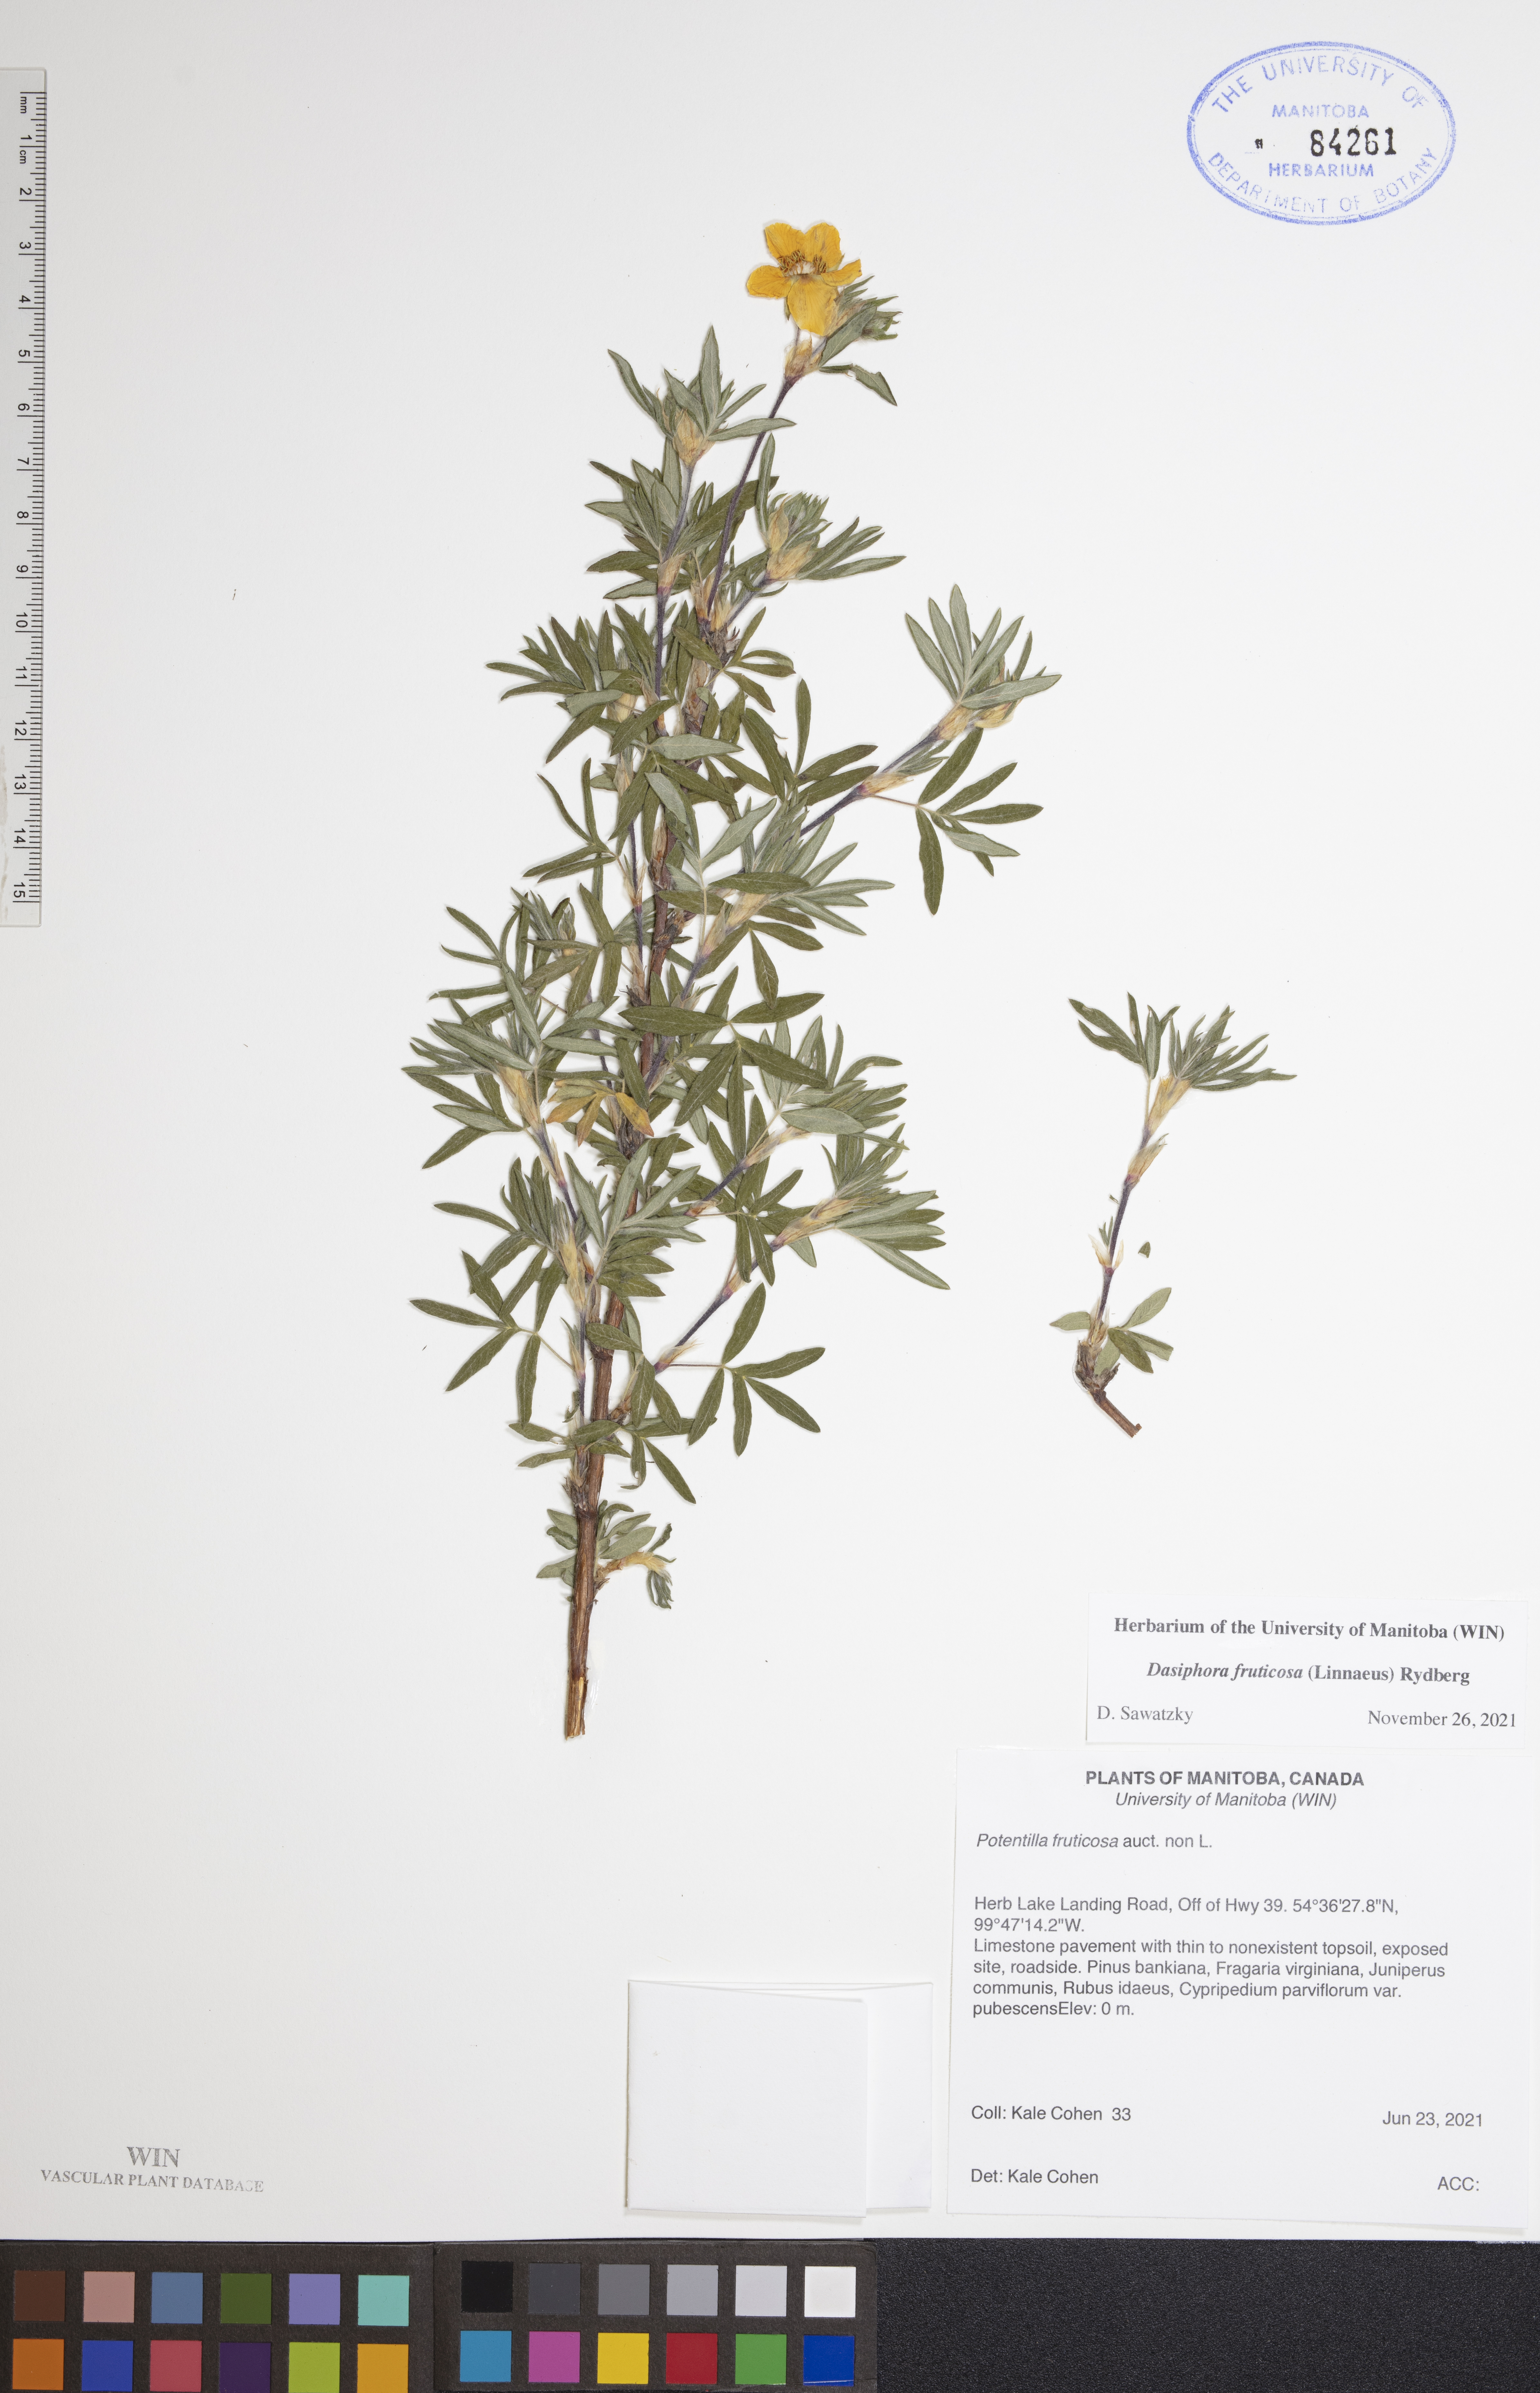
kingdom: Plantae
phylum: Tracheophyta
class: Magnoliopsida
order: Rosales
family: Rosaceae
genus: Dasiphora
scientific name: Dasiphora fruticosa
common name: Shrubby cinquefoil
